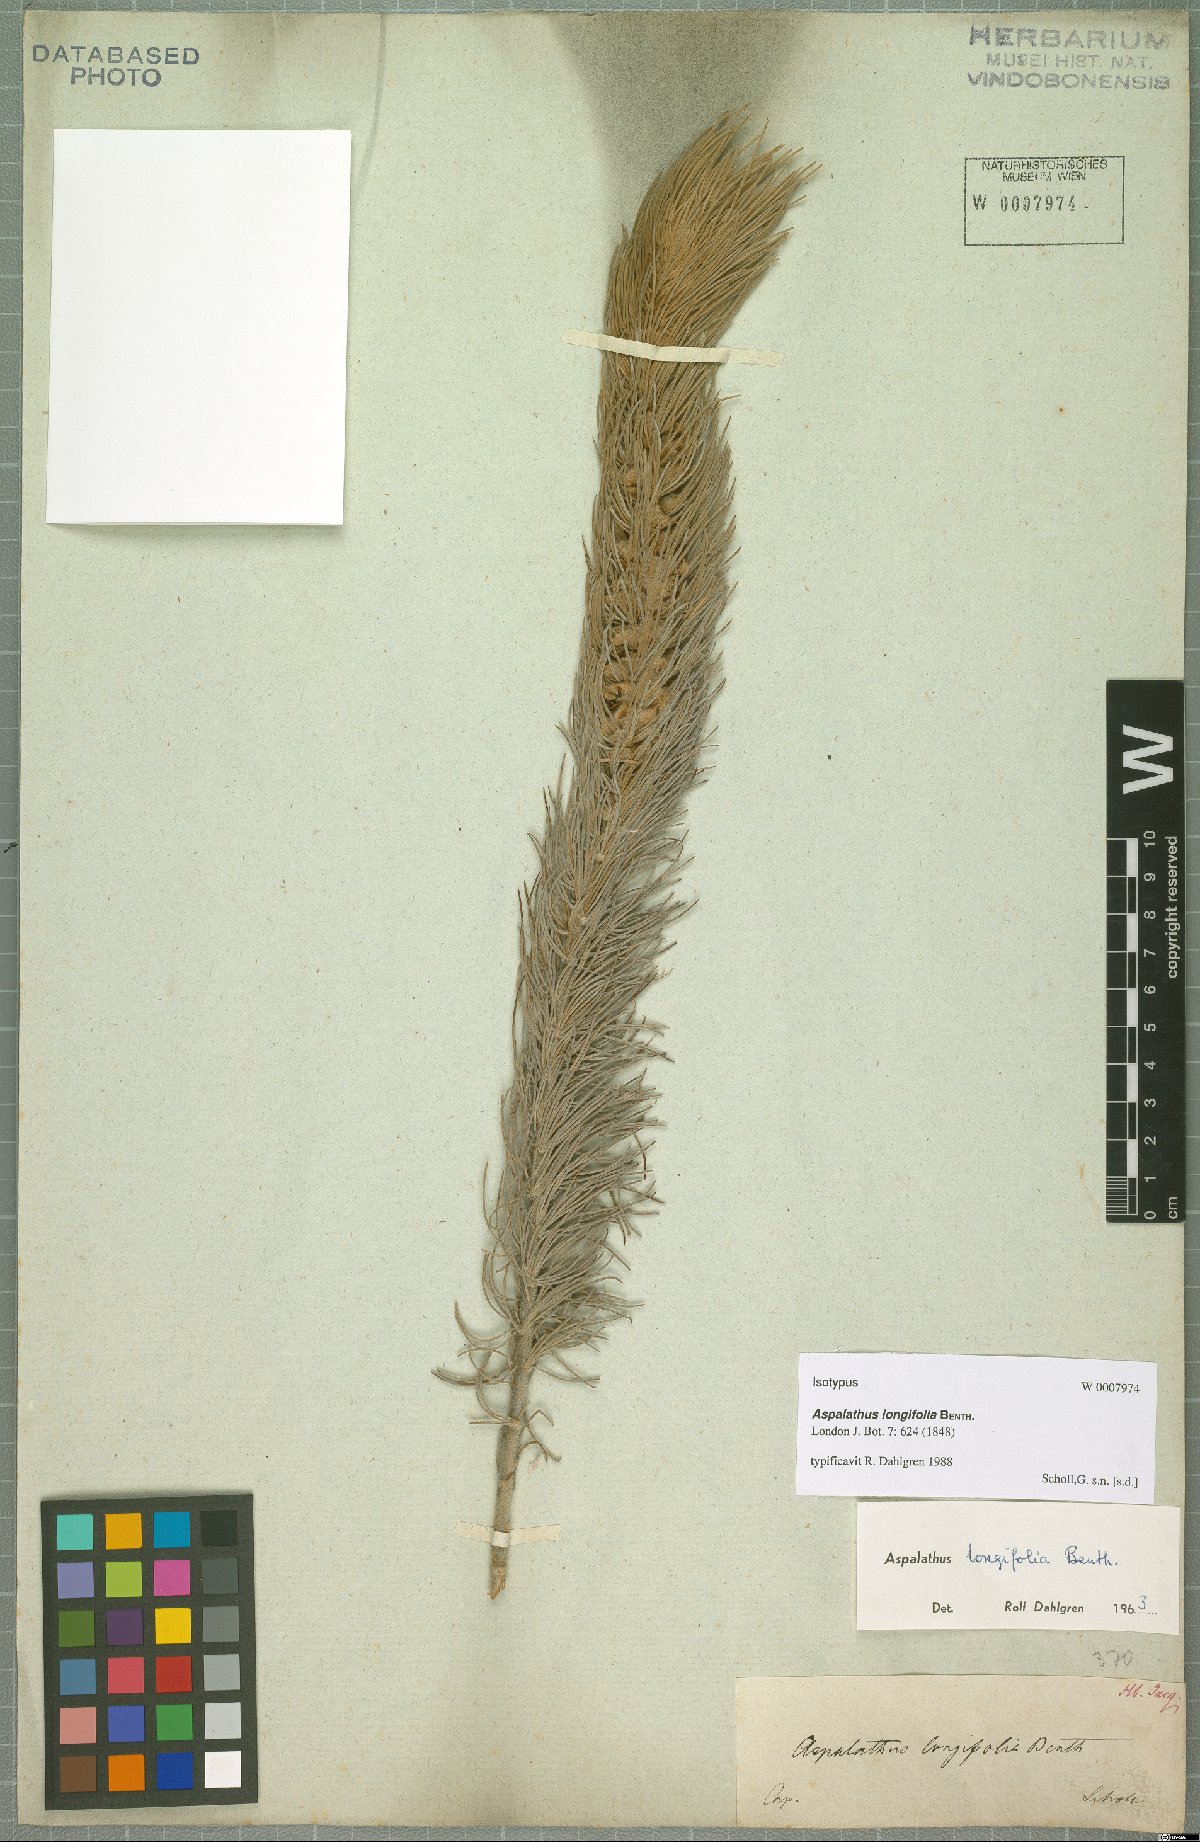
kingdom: Plantae
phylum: Tracheophyta
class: Magnoliopsida
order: Fabales
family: Fabaceae
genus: Aspalathus
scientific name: Aspalathus longifolia
